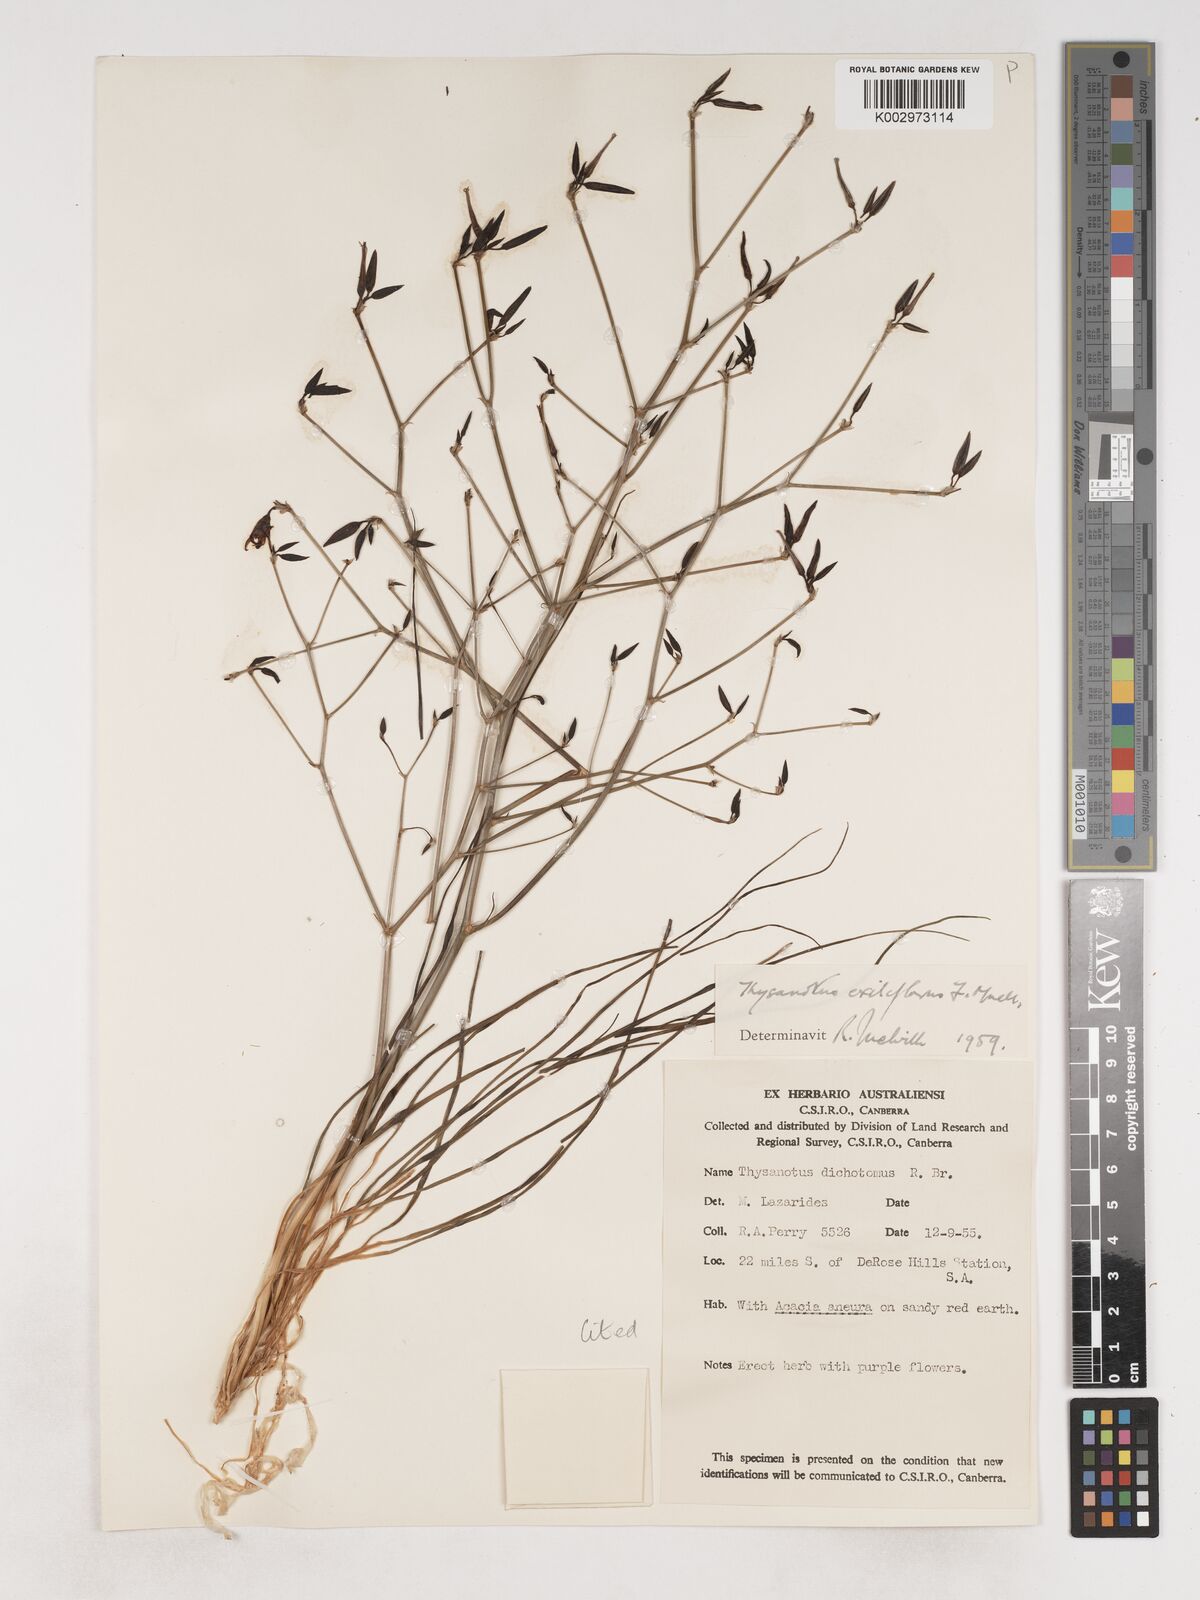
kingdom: Plantae
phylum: Tracheophyta
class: Liliopsida
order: Asparagales
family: Asparagaceae
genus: Thysanotus
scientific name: Thysanotus exiliflorus
